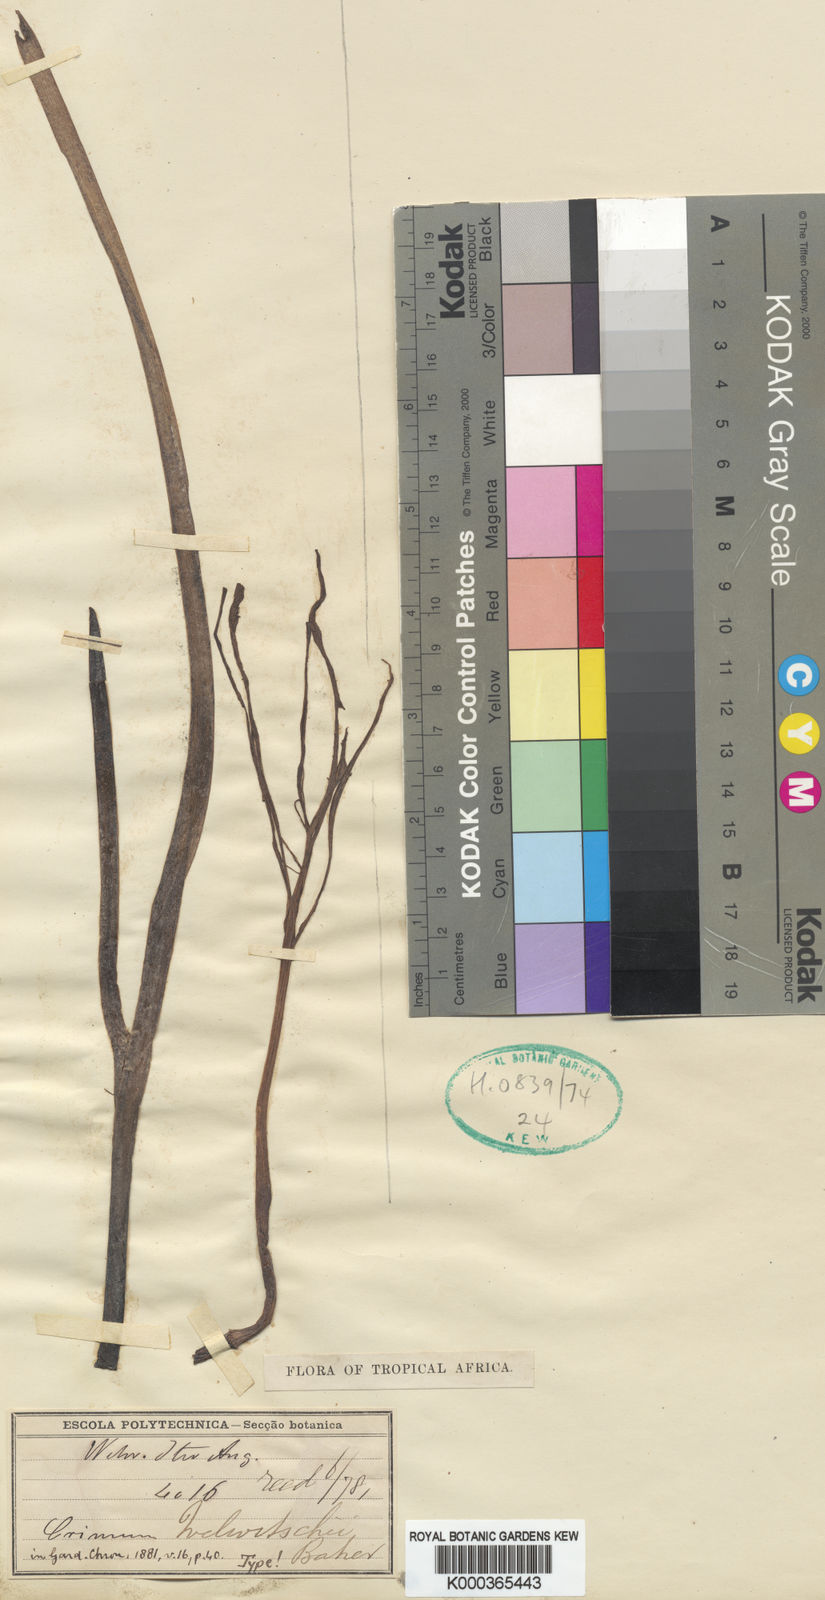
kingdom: Plantae
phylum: Tracheophyta
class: Liliopsida
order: Asparagales
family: Amaryllidaceae
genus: Crinum
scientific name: Crinum welwitschii
